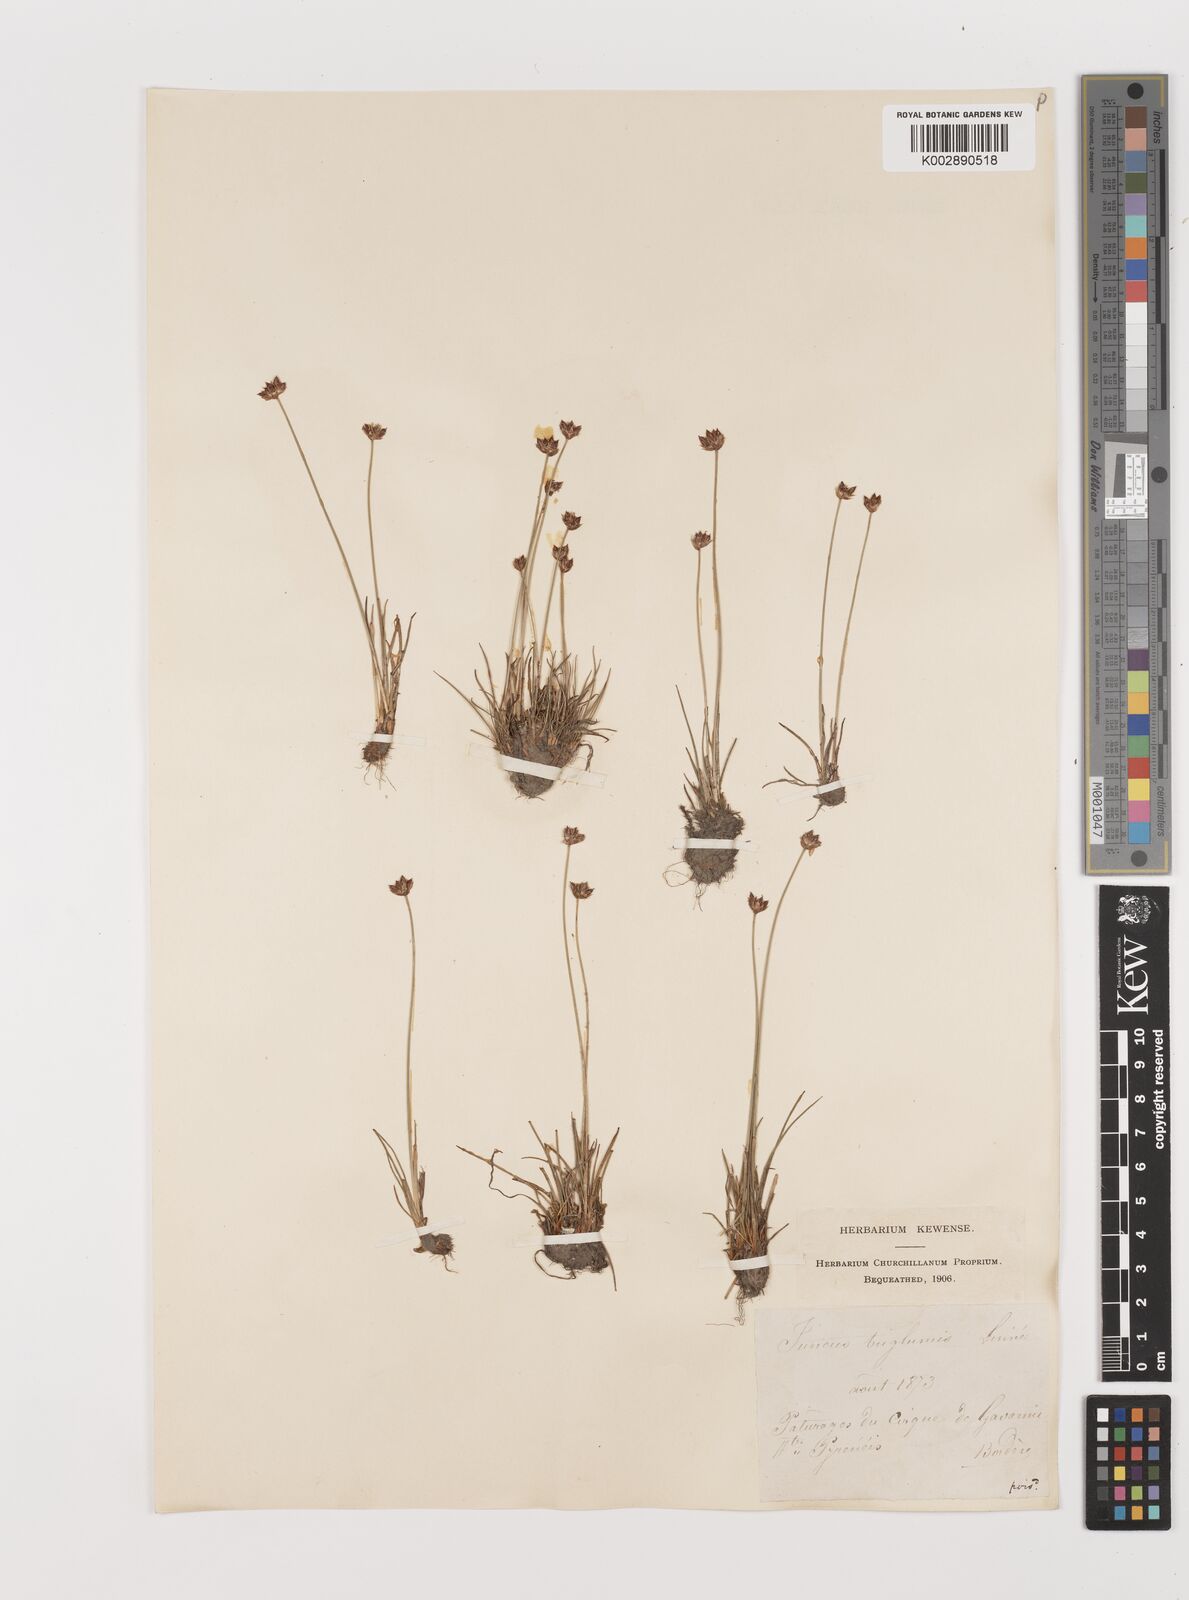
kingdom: Plantae
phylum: Tracheophyta
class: Liliopsida
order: Poales
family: Juncaceae
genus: Juncus
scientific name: Juncus triglumis
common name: Three-flowered rush
